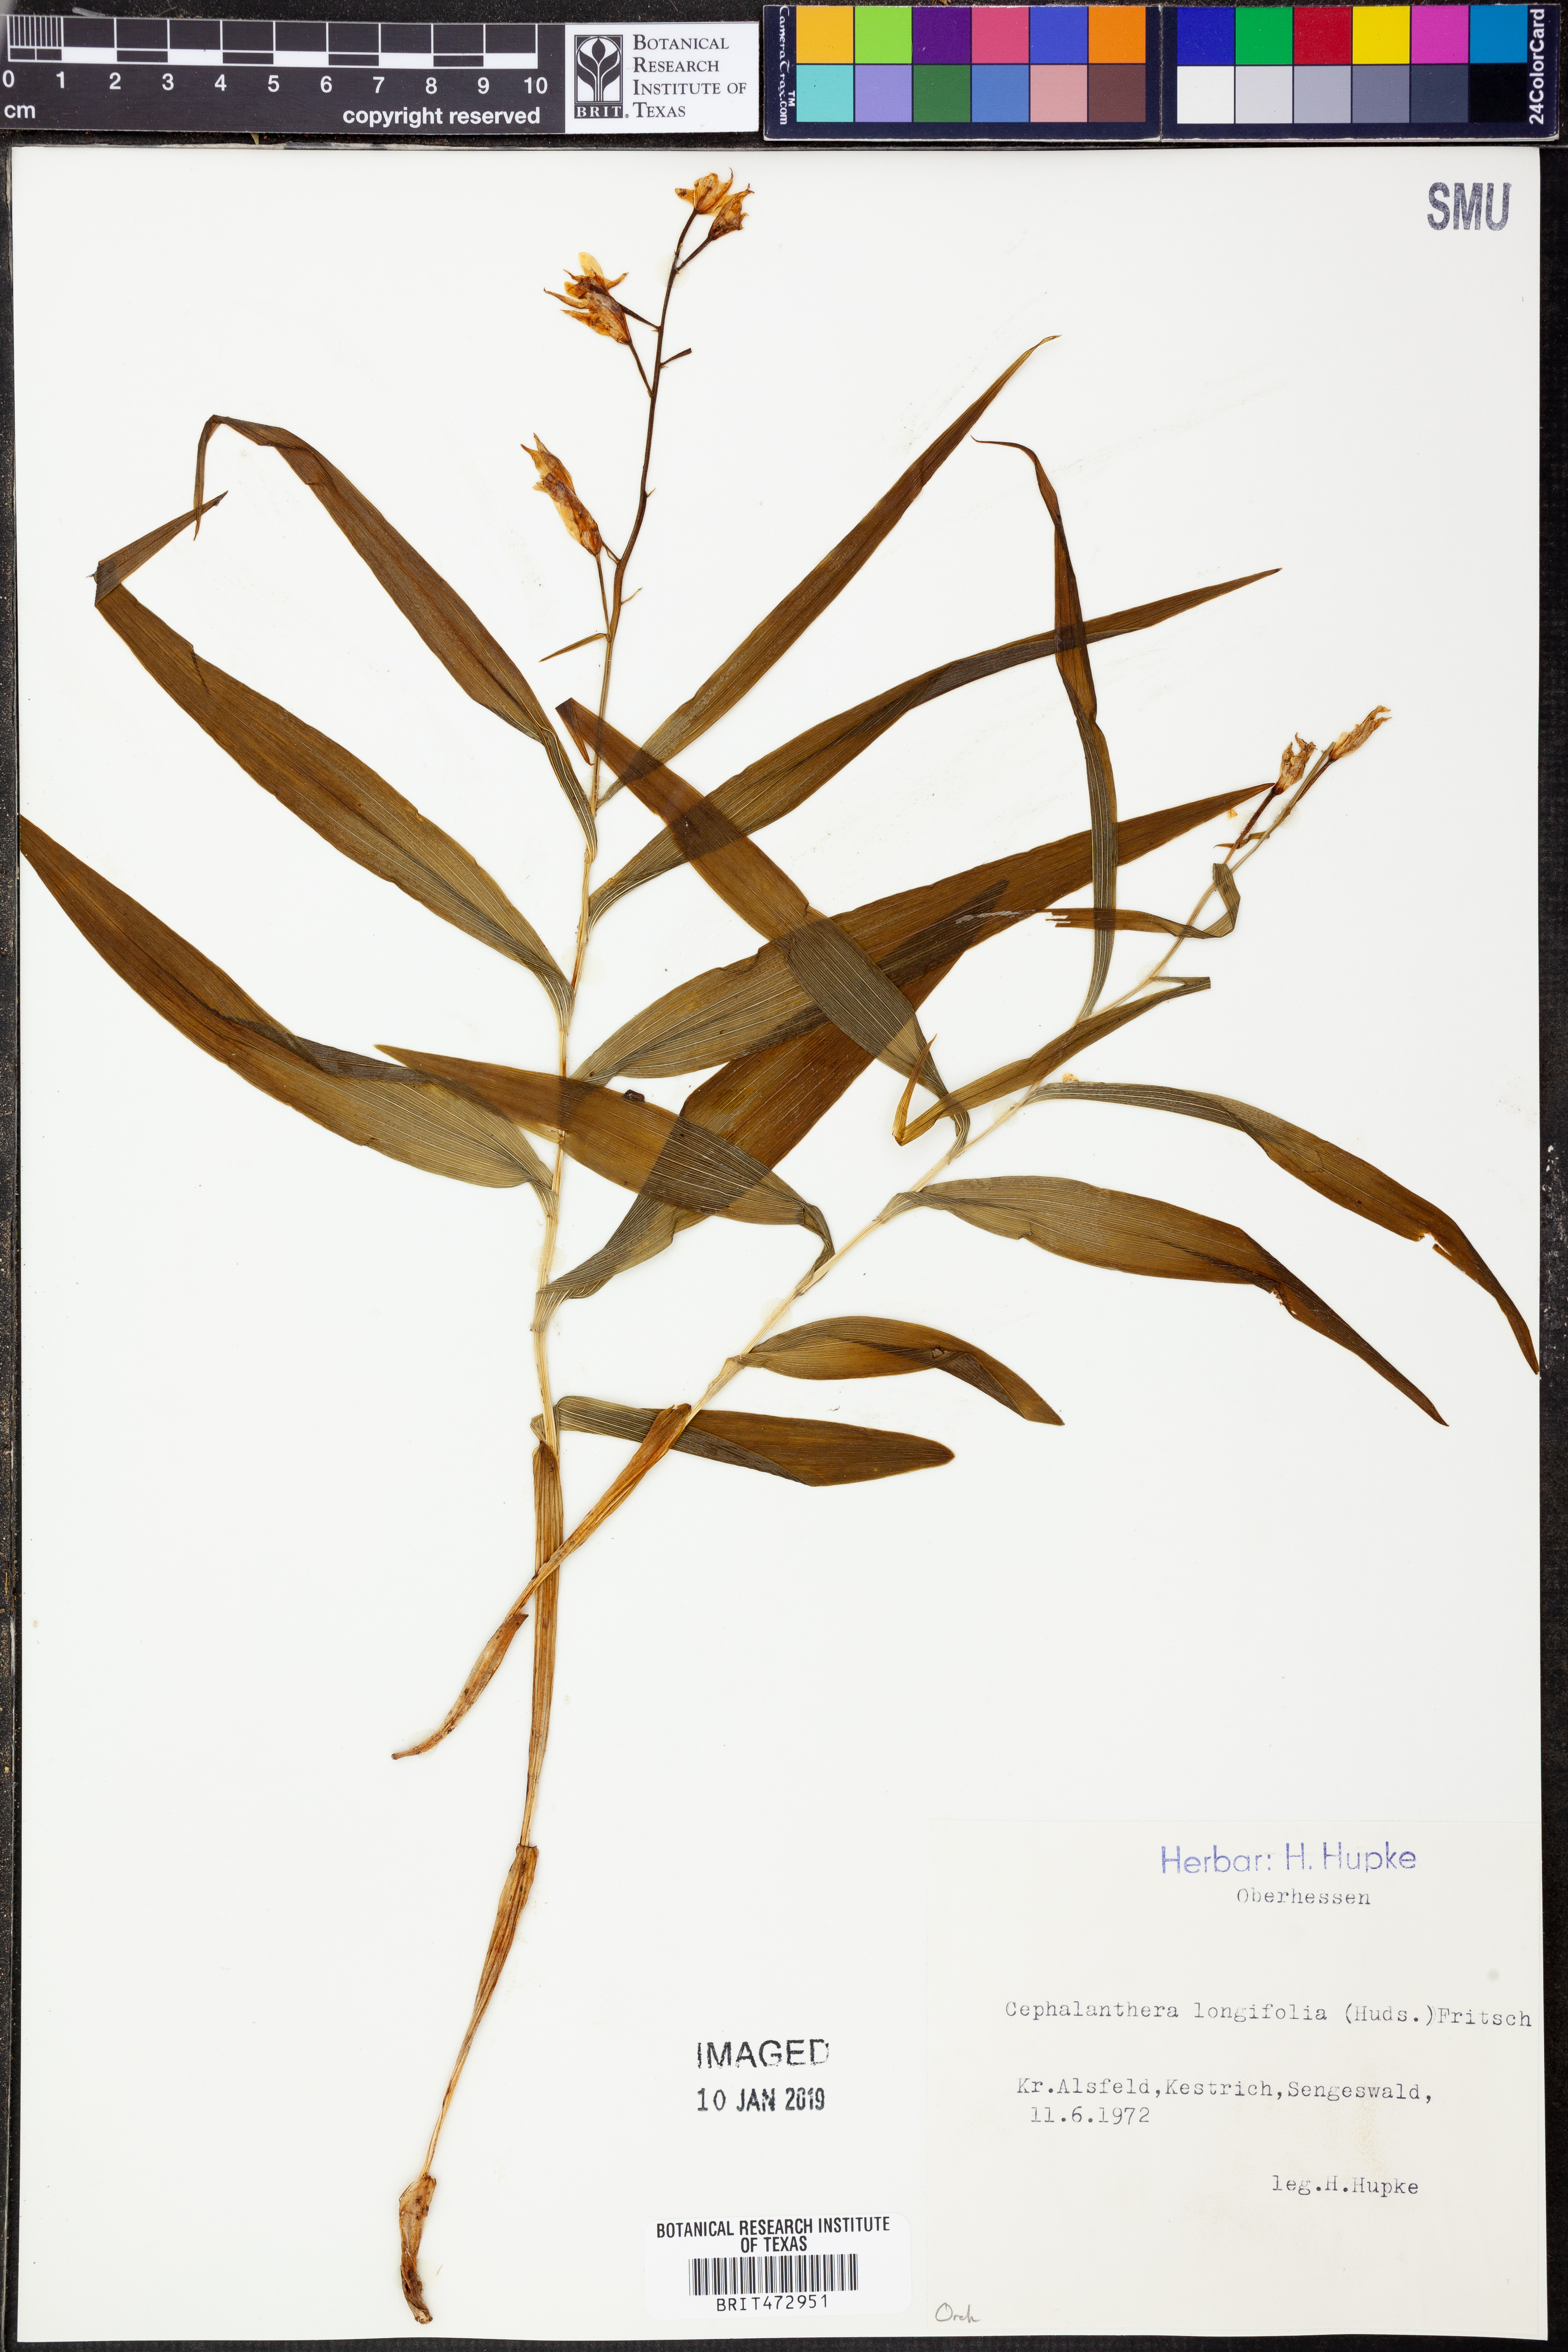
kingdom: Plantae
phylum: Tracheophyta
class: Liliopsida
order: Asparagales
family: Orchidaceae
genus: Cephalanthera
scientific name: Cephalanthera longifolia
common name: Narrow-leaved helleborine
